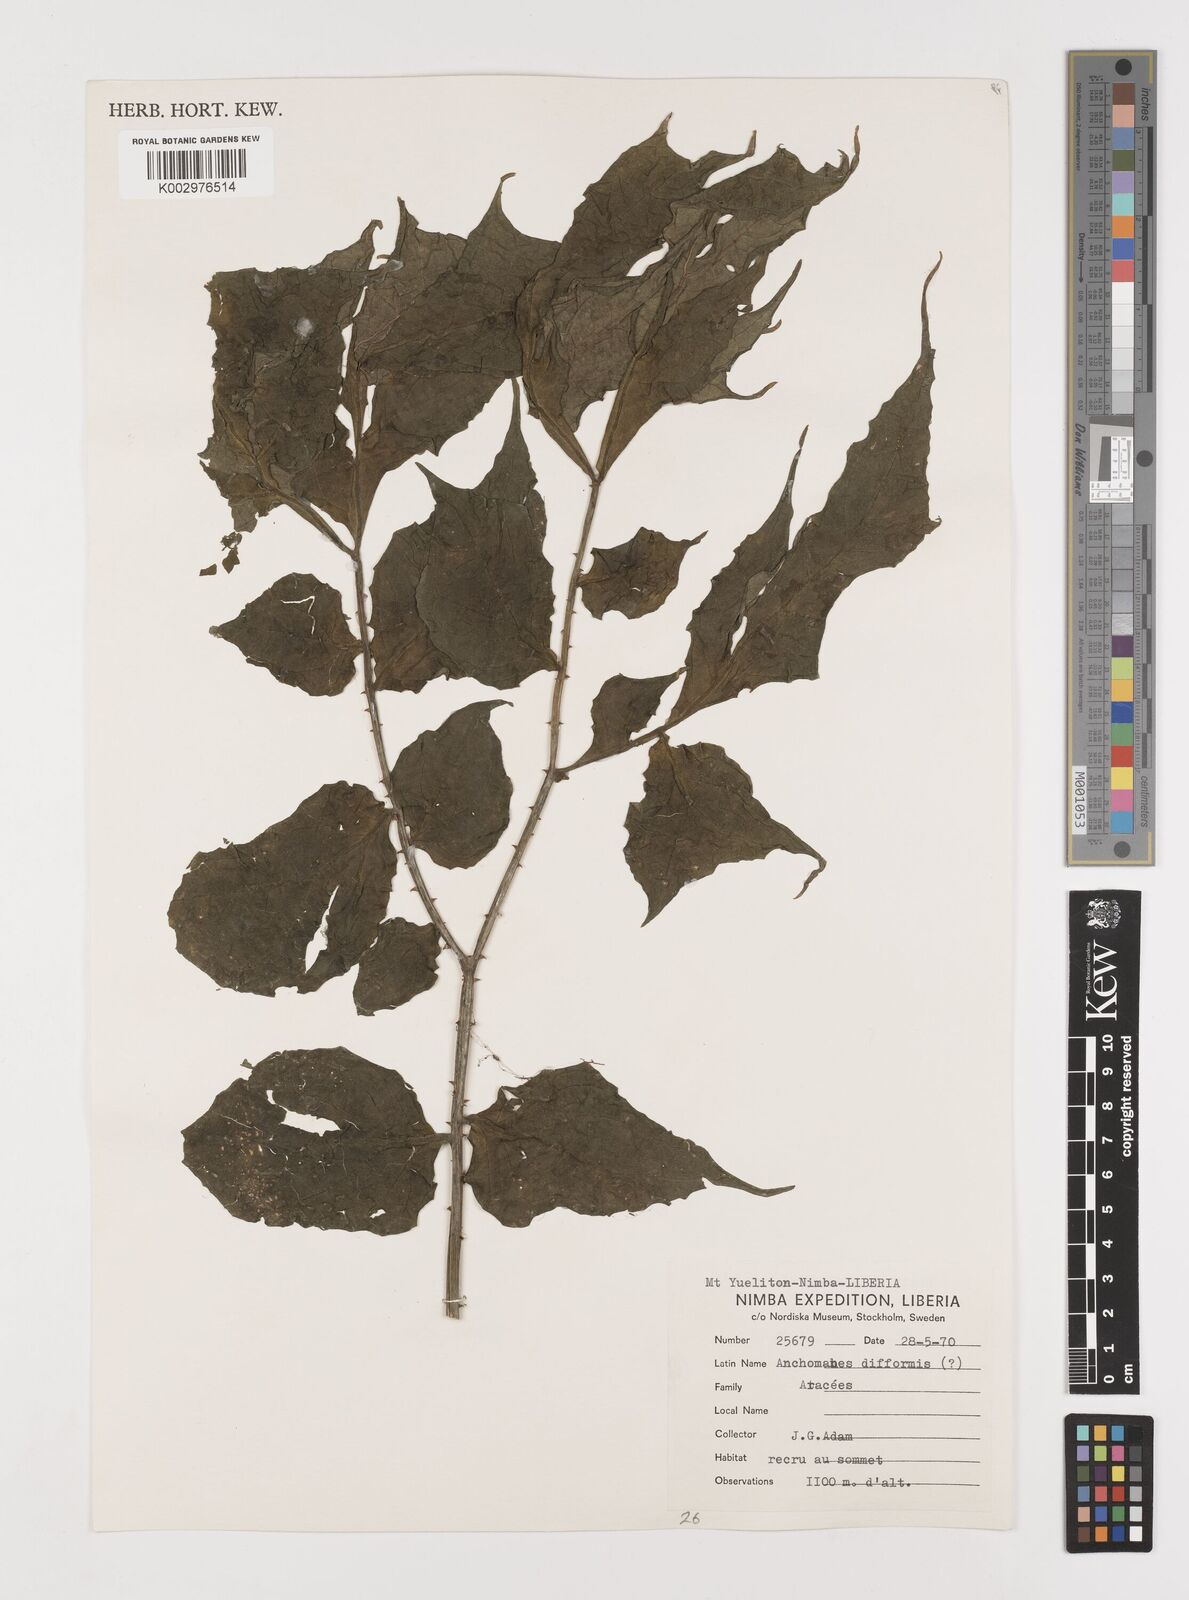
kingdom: Plantae
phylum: Tracheophyta
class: Liliopsida
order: Alismatales
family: Araceae
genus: Anchomanes
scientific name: Anchomanes difformis
